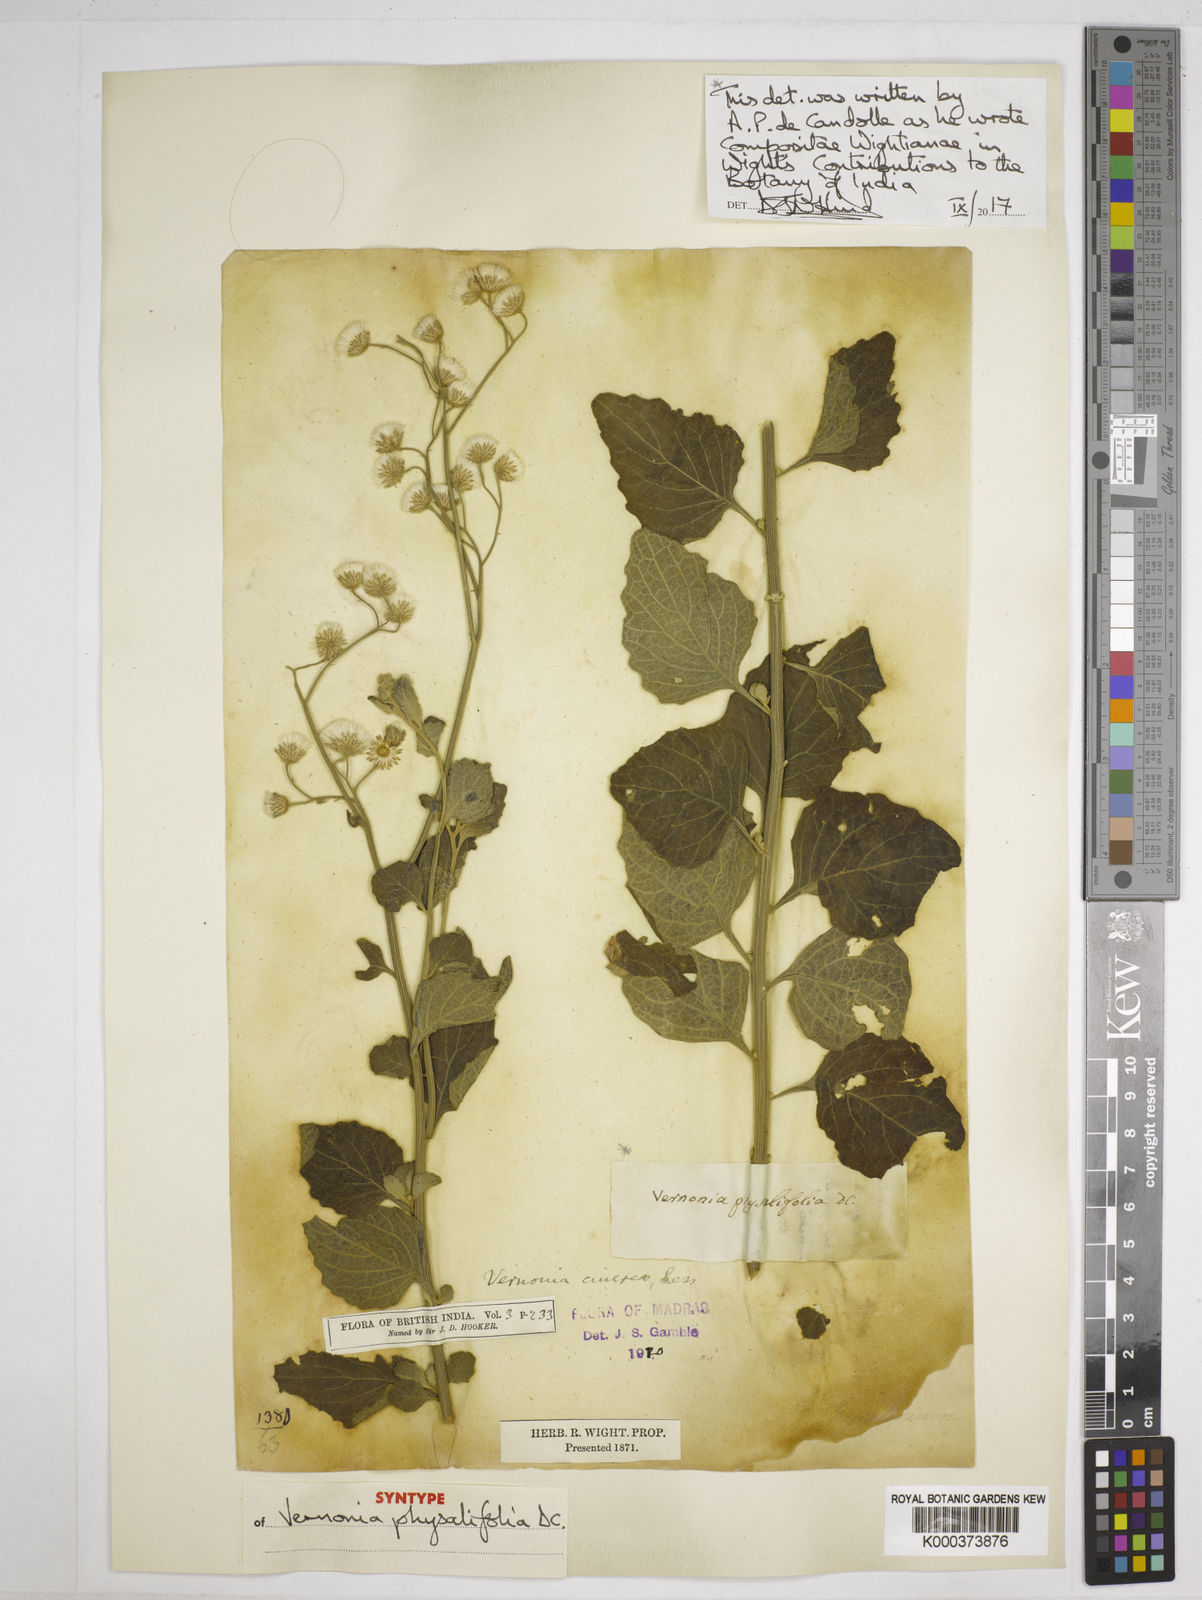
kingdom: Plantae
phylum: Tracheophyta
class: Magnoliopsida
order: Asterales
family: Asteraceae
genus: Cyanthillium
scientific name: Cyanthillium cinereum
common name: Little ironweed
